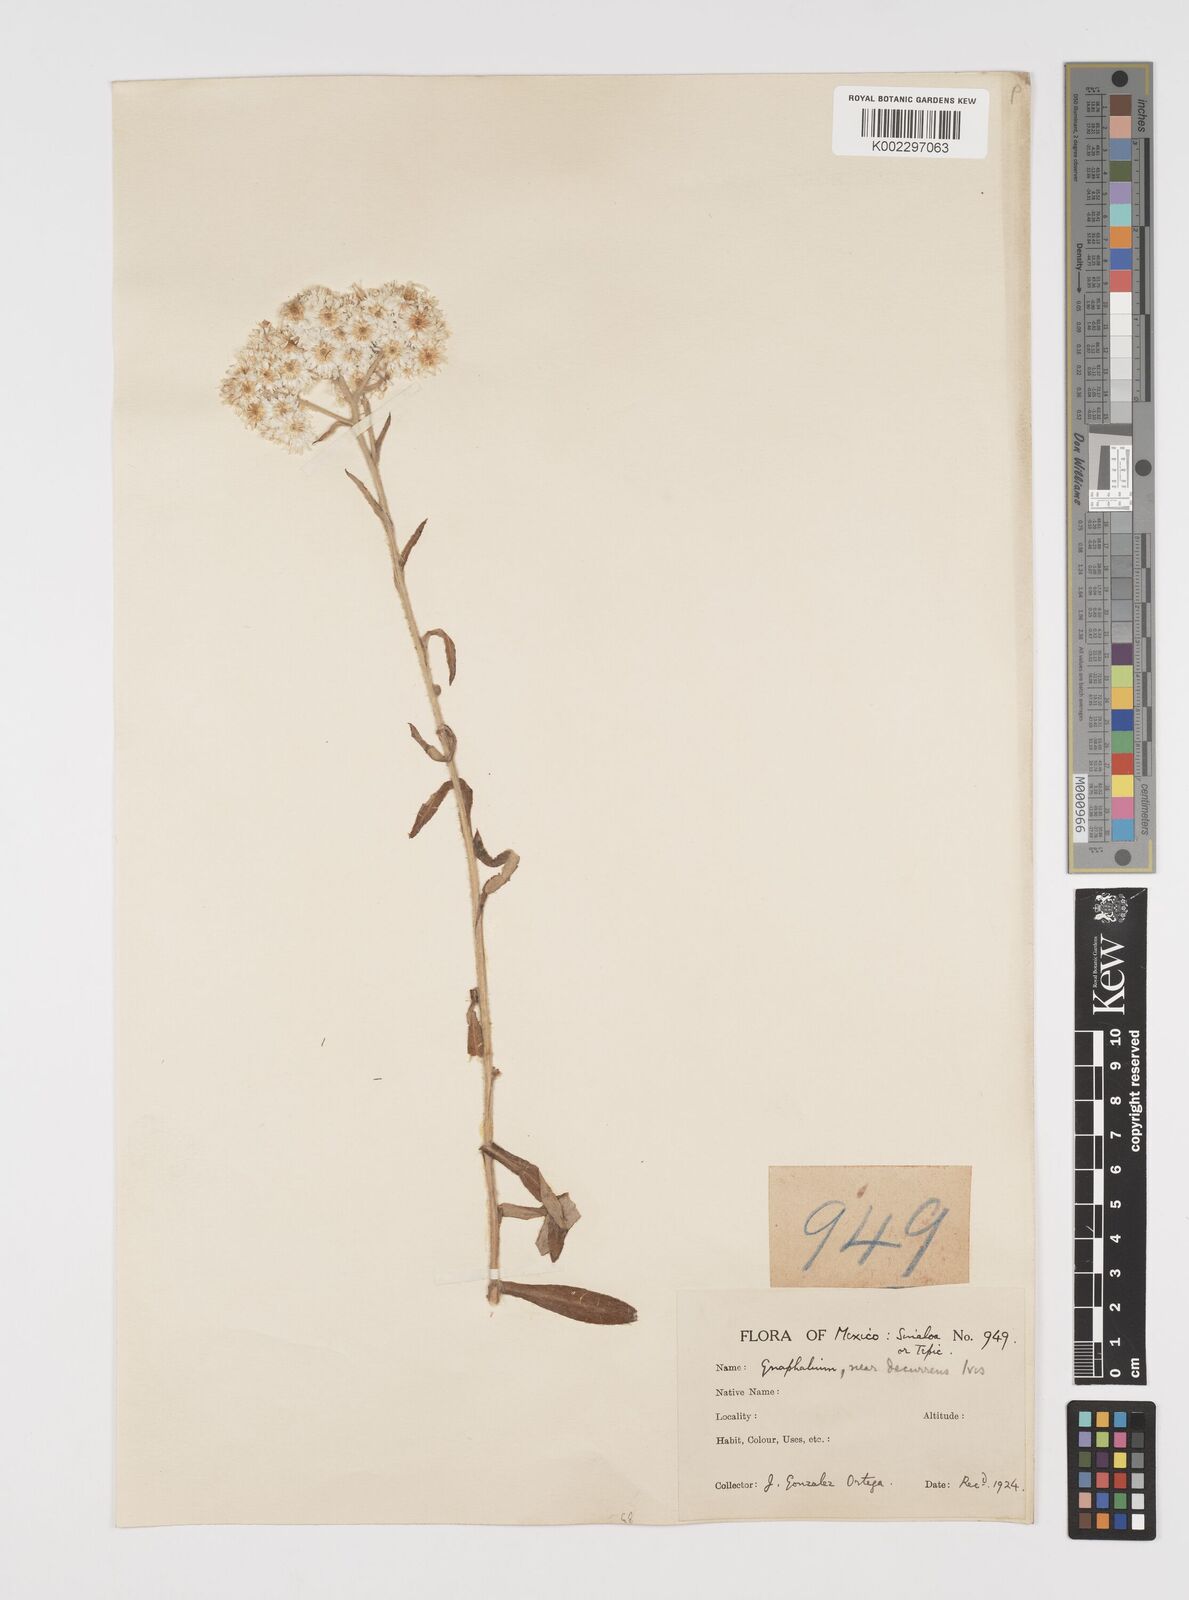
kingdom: Plantae
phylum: Tracheophyta
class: Magnoliopsida
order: Asterales
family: Asteraceae
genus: Pseudognaphalium
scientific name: Pseudognaphalium
